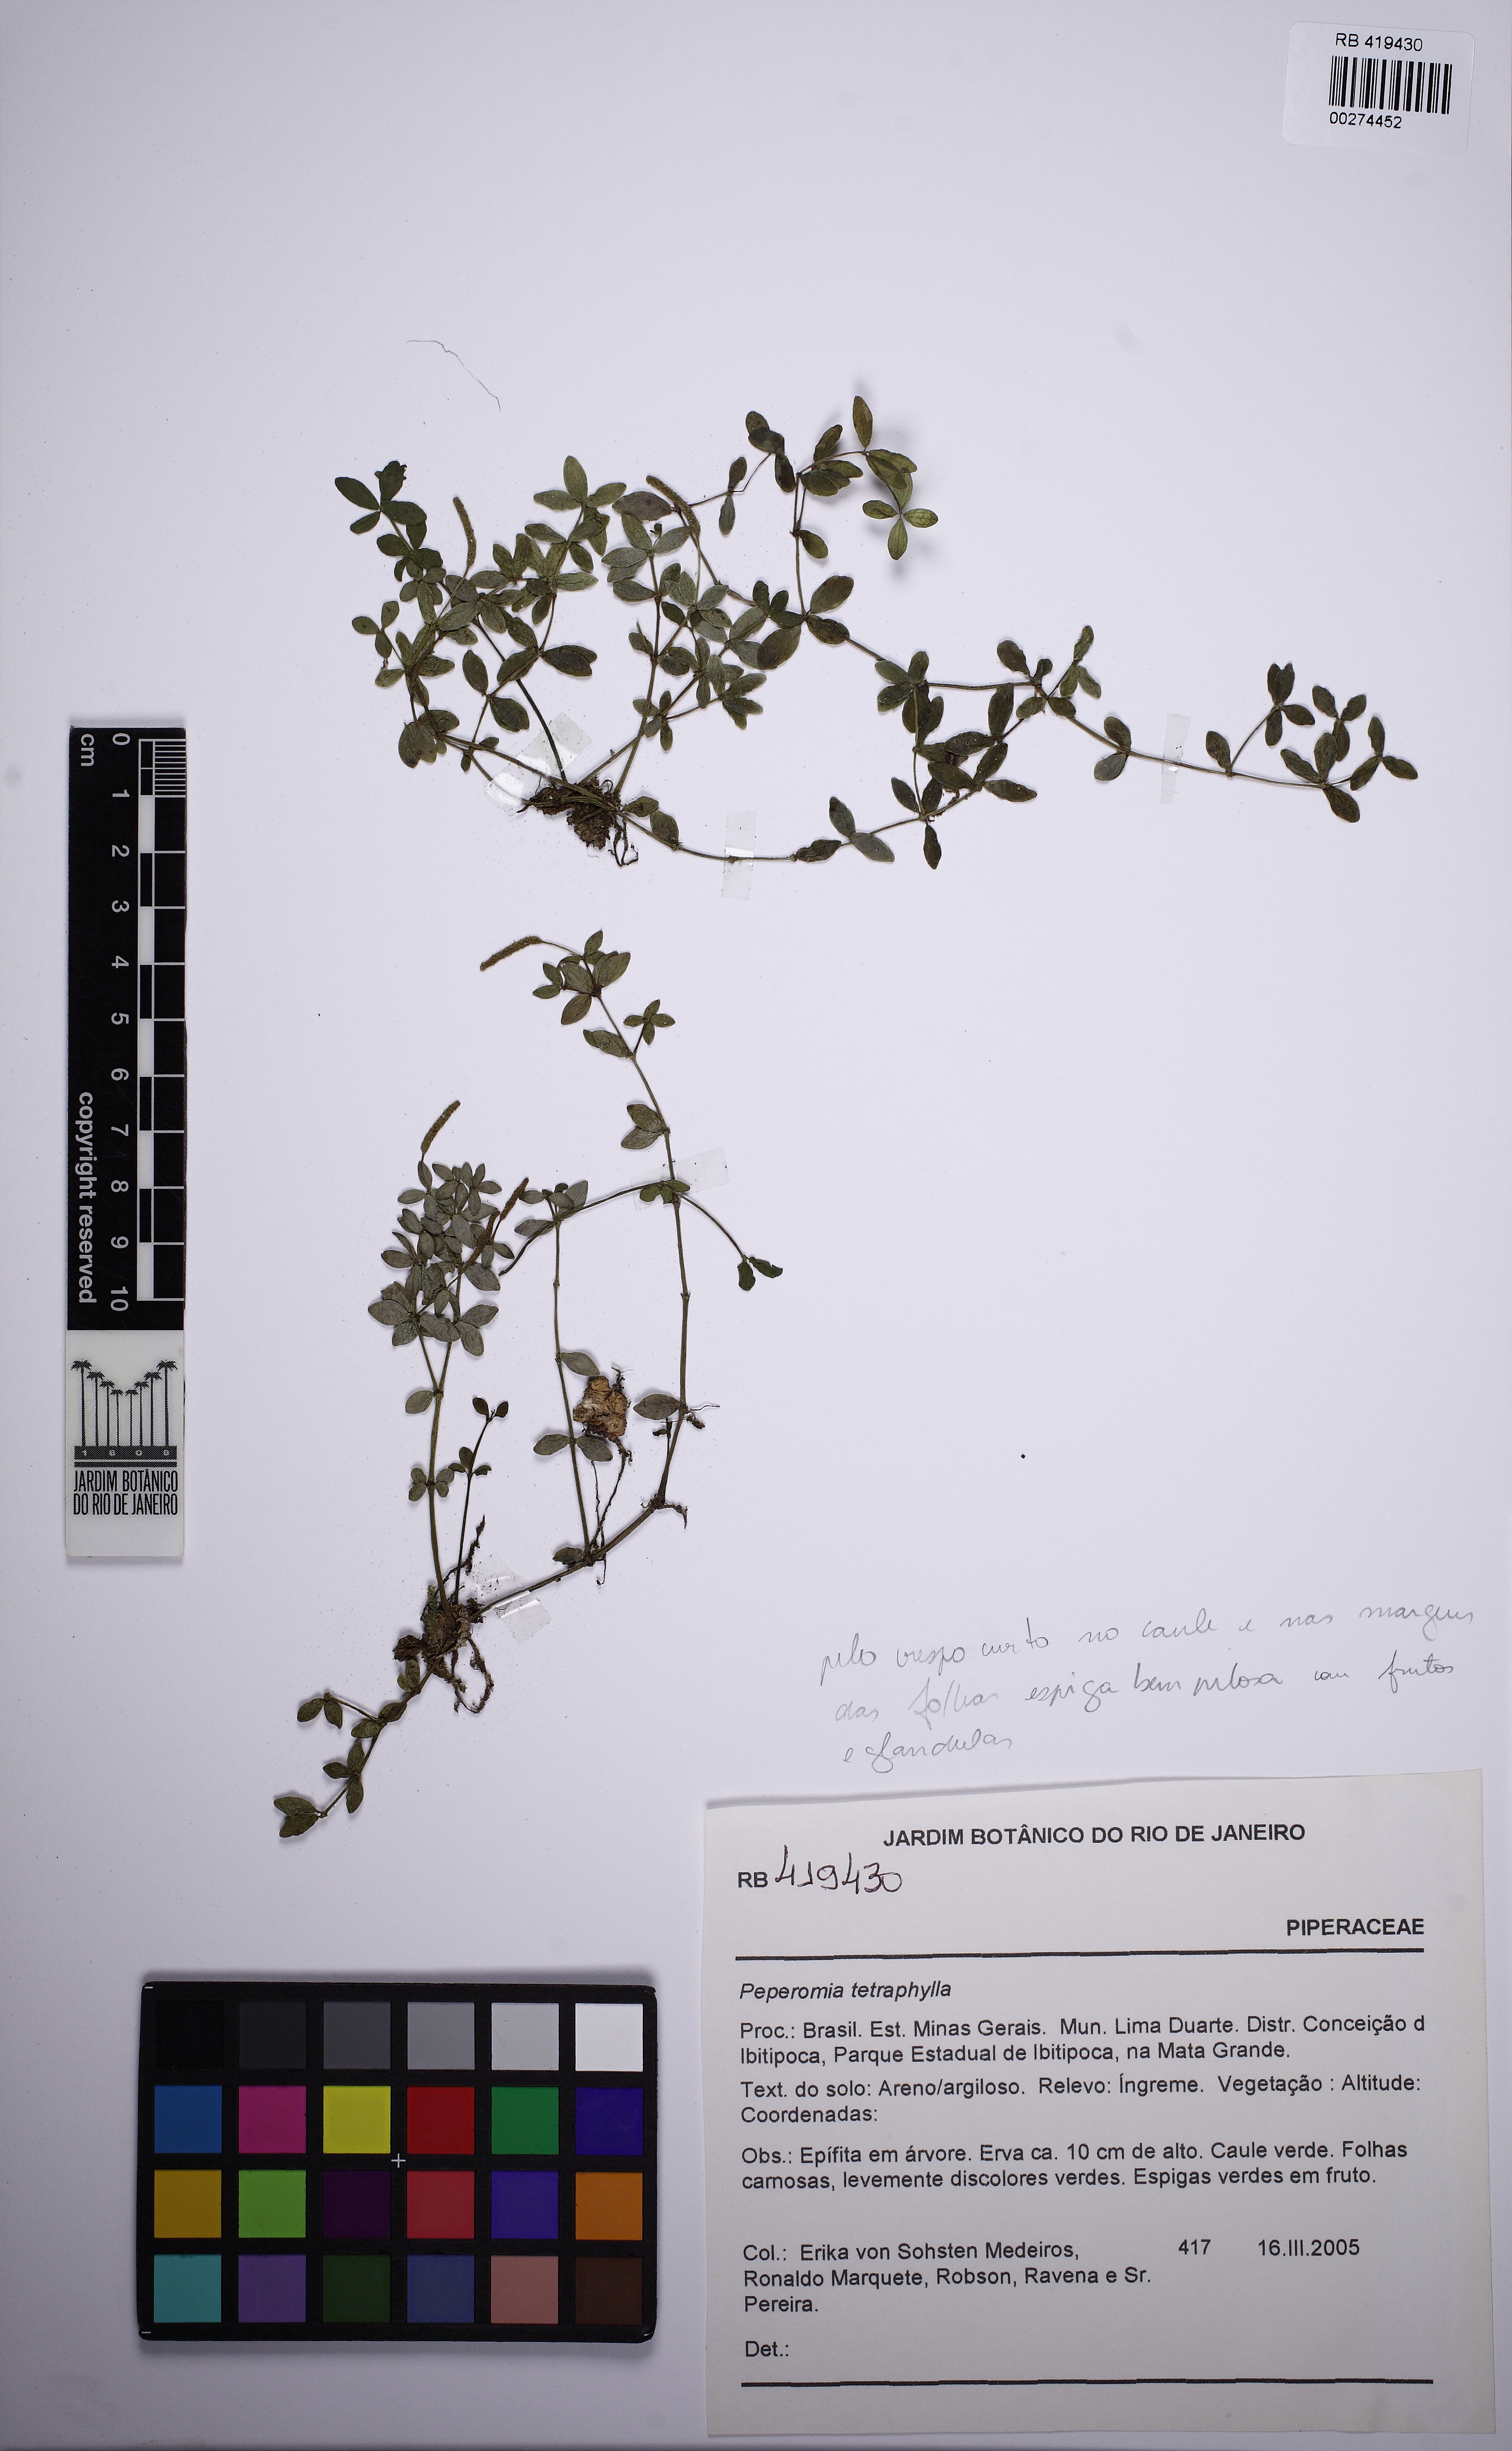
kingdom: Plantae
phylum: Tracheophyta
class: Magnoliopsida
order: Piperales
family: Piperaceae
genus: Peperomia
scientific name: Peperomia tetraphylla
